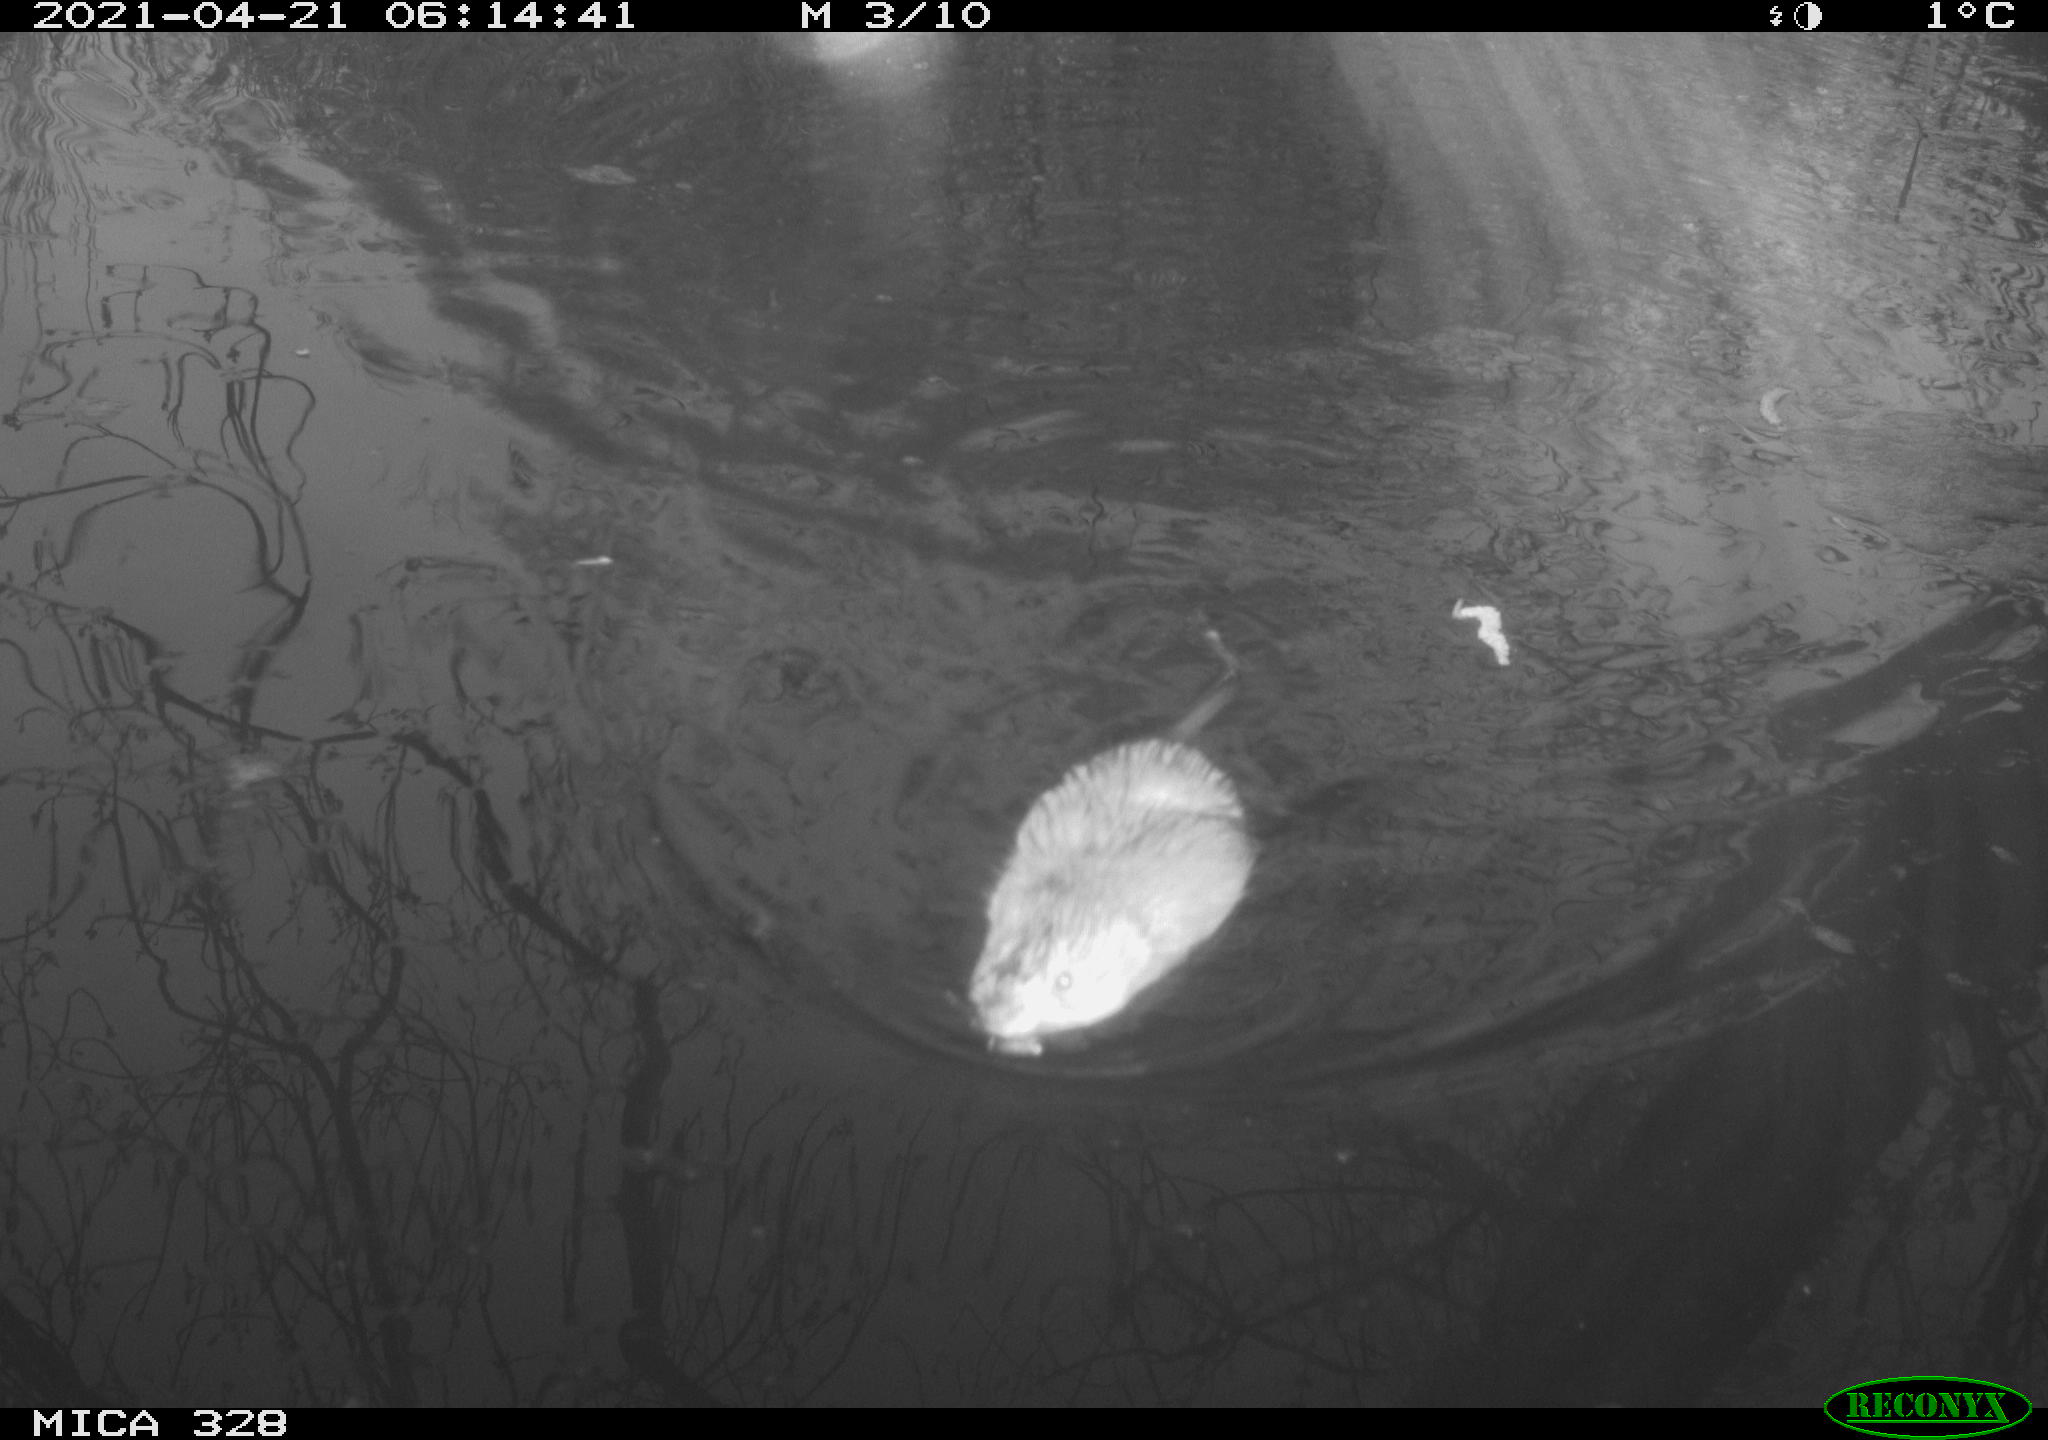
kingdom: Animalia
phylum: Chordata
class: Mammalia
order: Rodentia
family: Cricetidae
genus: Ondatra
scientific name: Ondatra zibethicus
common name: Muskrat
